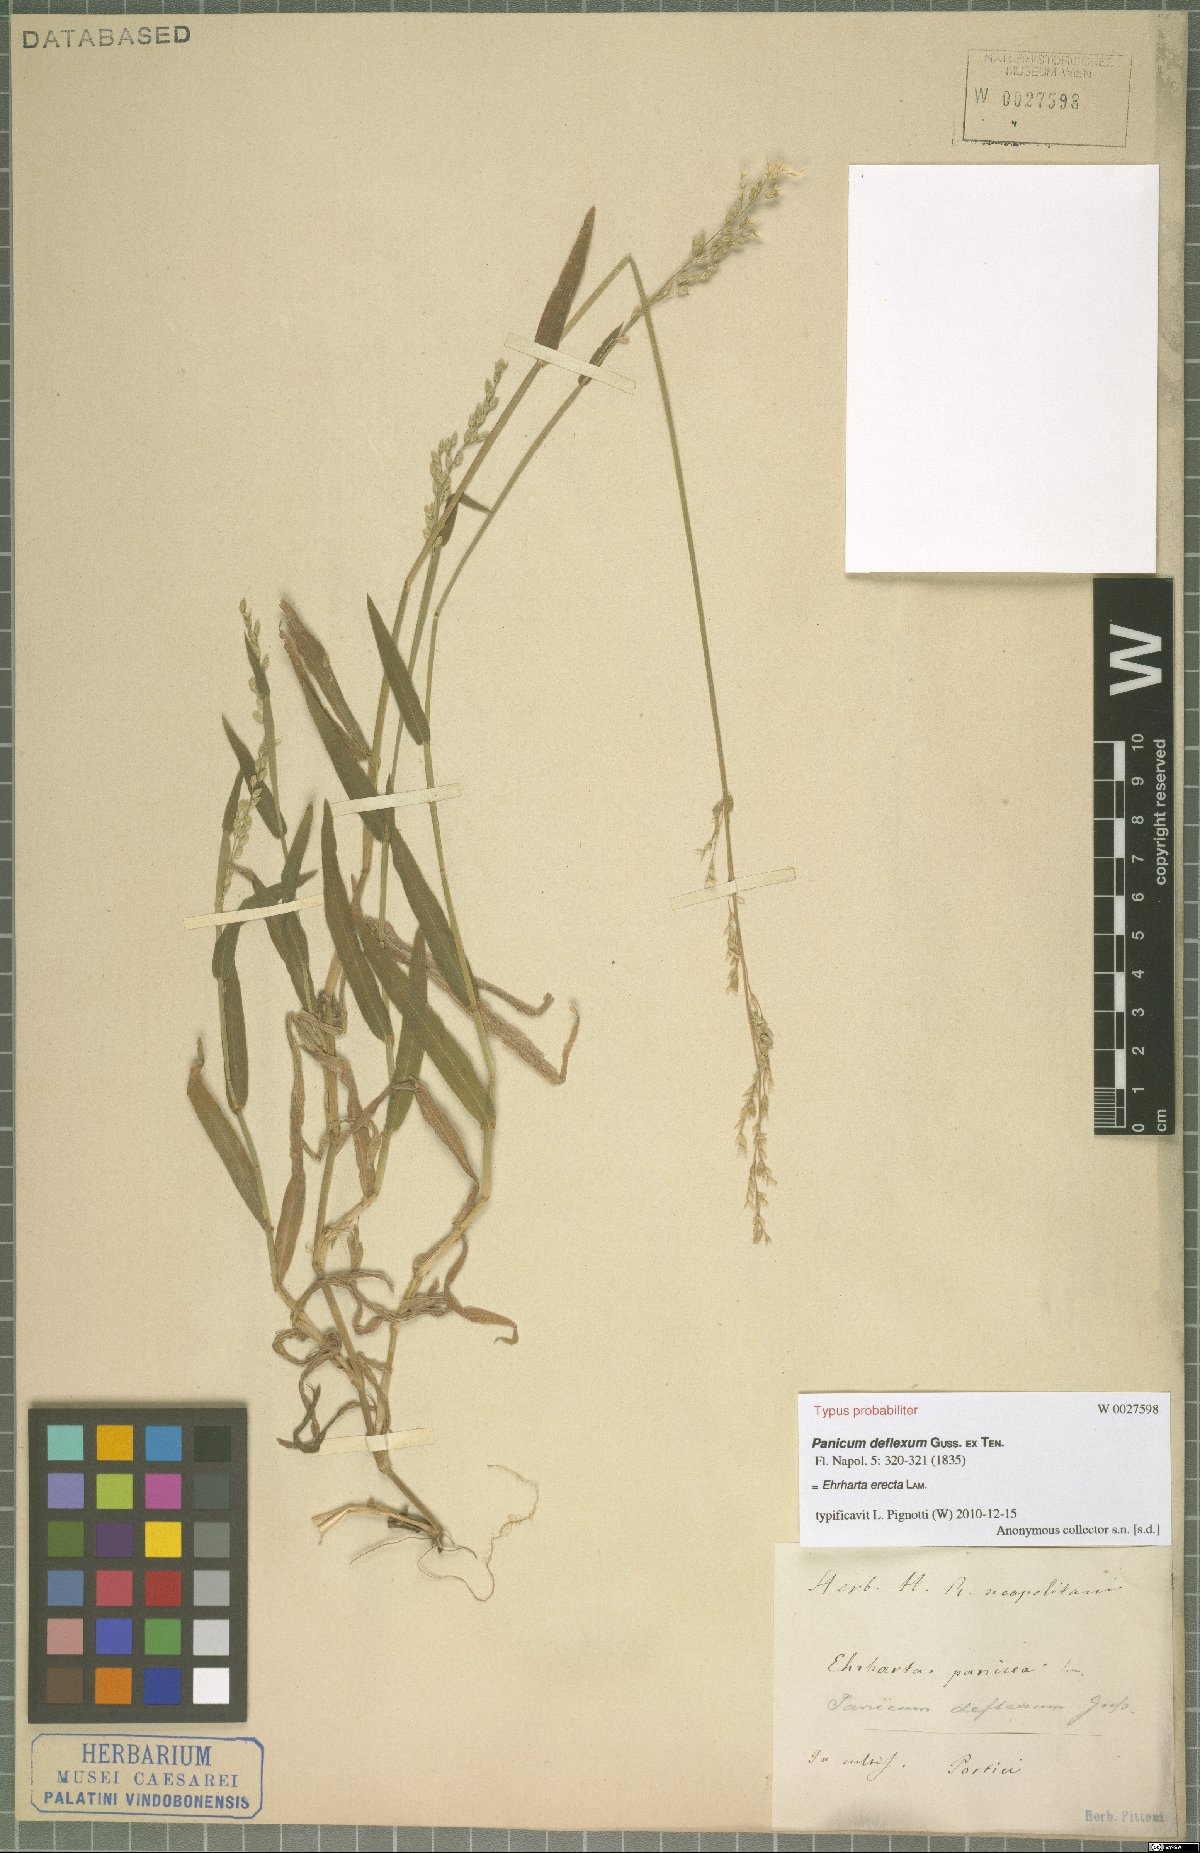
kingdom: Plantae
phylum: Tracheophyta
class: Liliopsida
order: Poales
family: Poaceae
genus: Ehrharta
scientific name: Ehrharta erecta
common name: Panic veldtgrass
